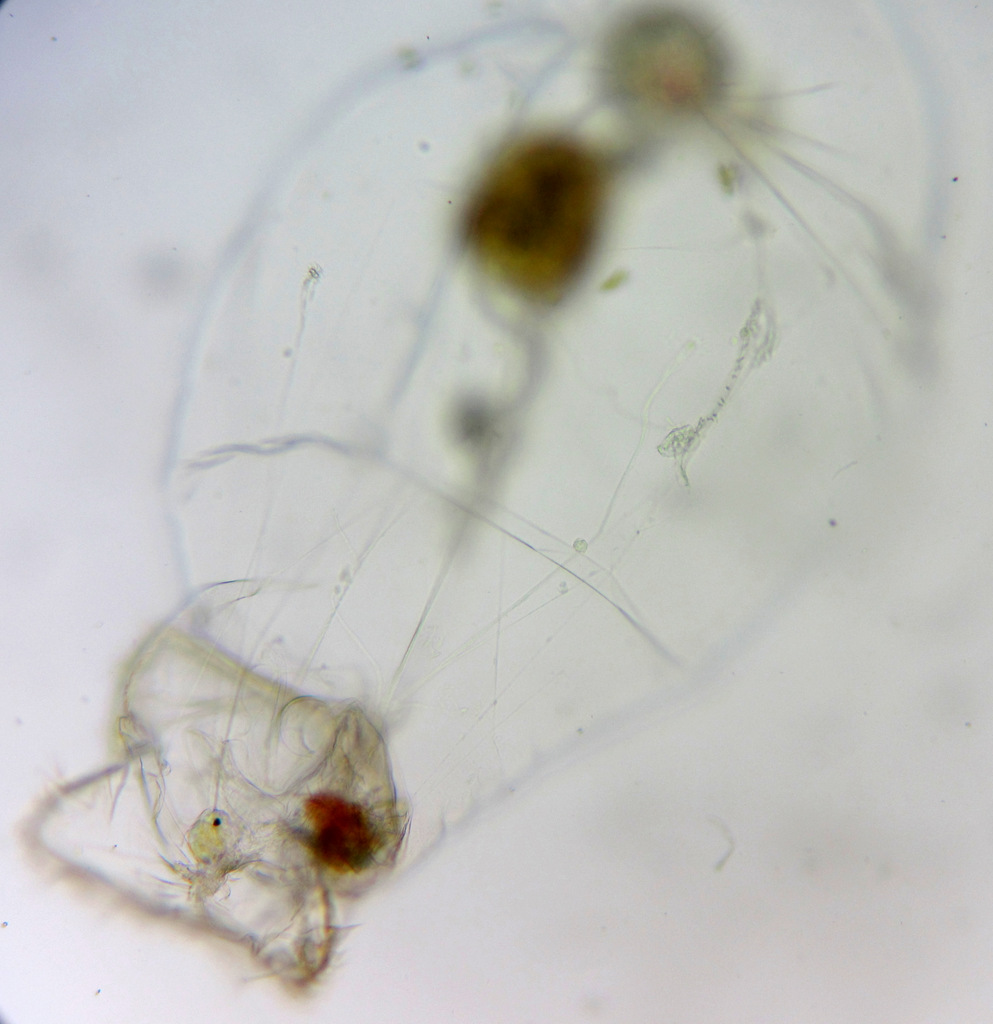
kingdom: Animalia
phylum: Rotifera
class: Eurotatoria
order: Ploima
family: Asplanchnidae
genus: Asplanchna
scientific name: Asplanchna priodonta
